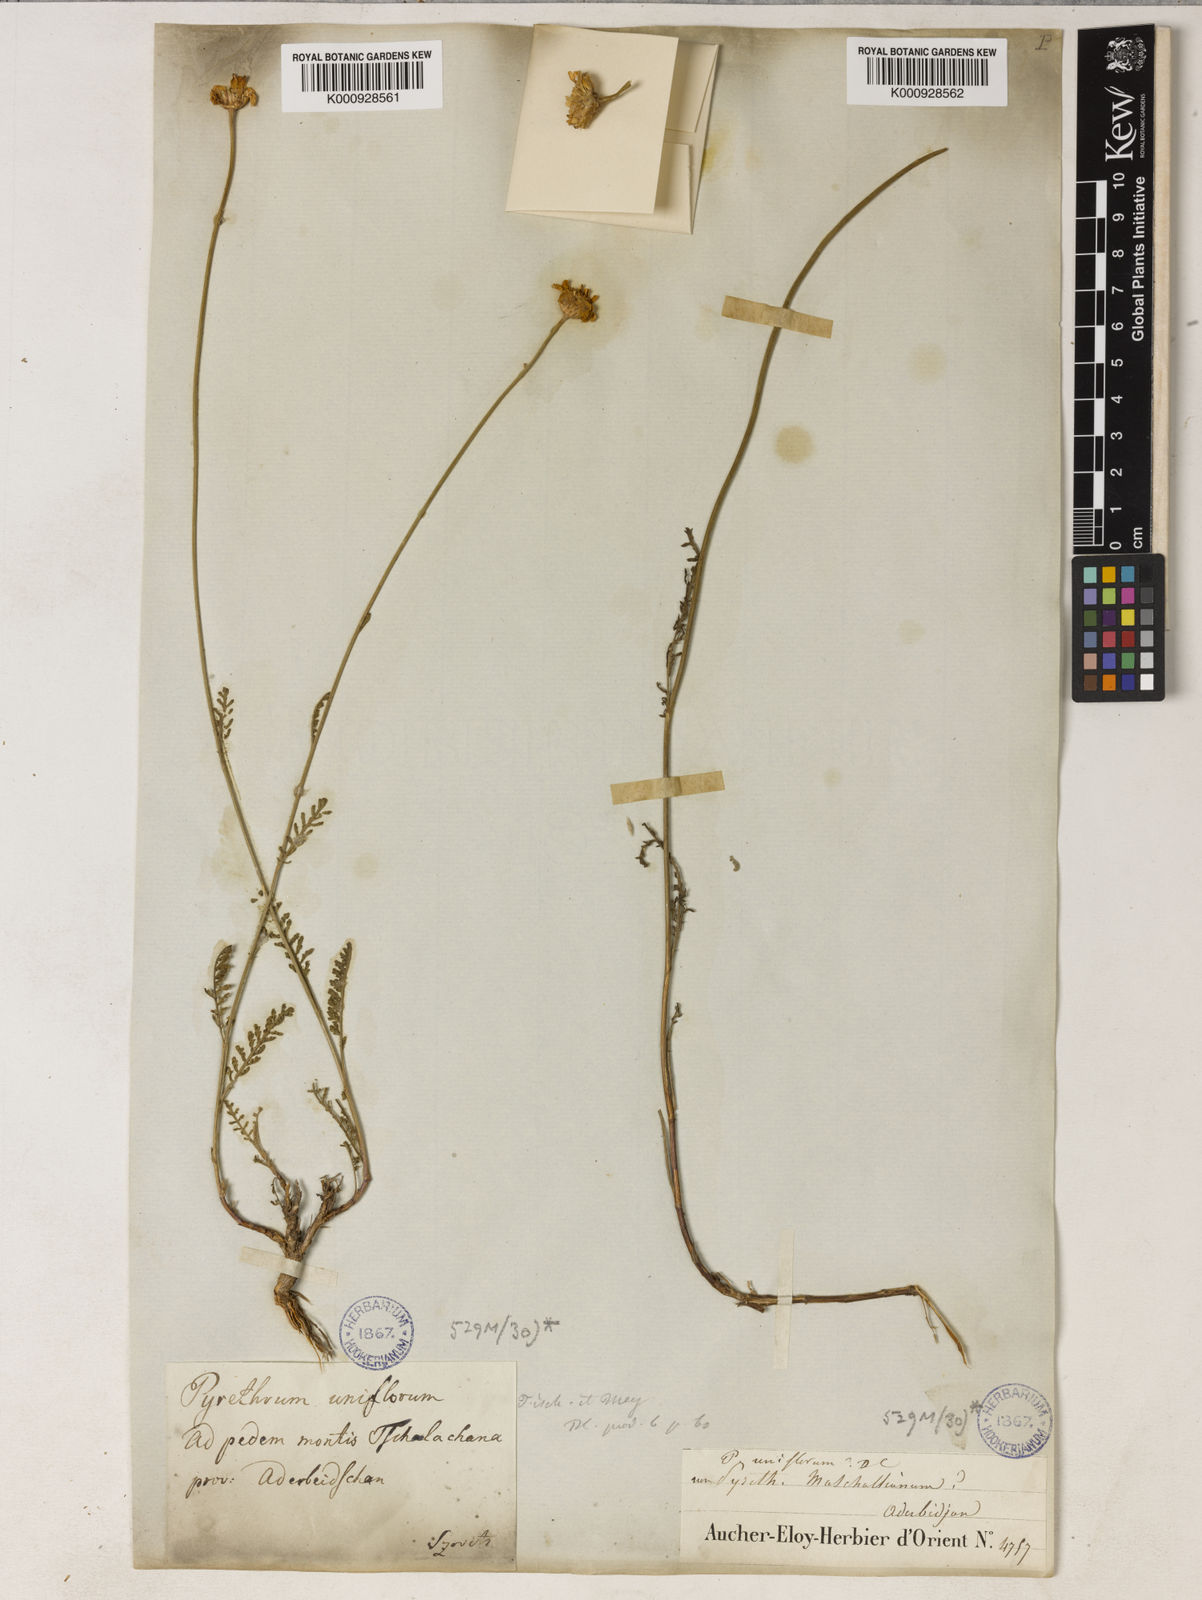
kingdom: Plantae
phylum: Tracheophyta
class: Magnoliopsida
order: Asterales
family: Asteraceae
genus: Tanacetum
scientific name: Tanacetum uniflorum
